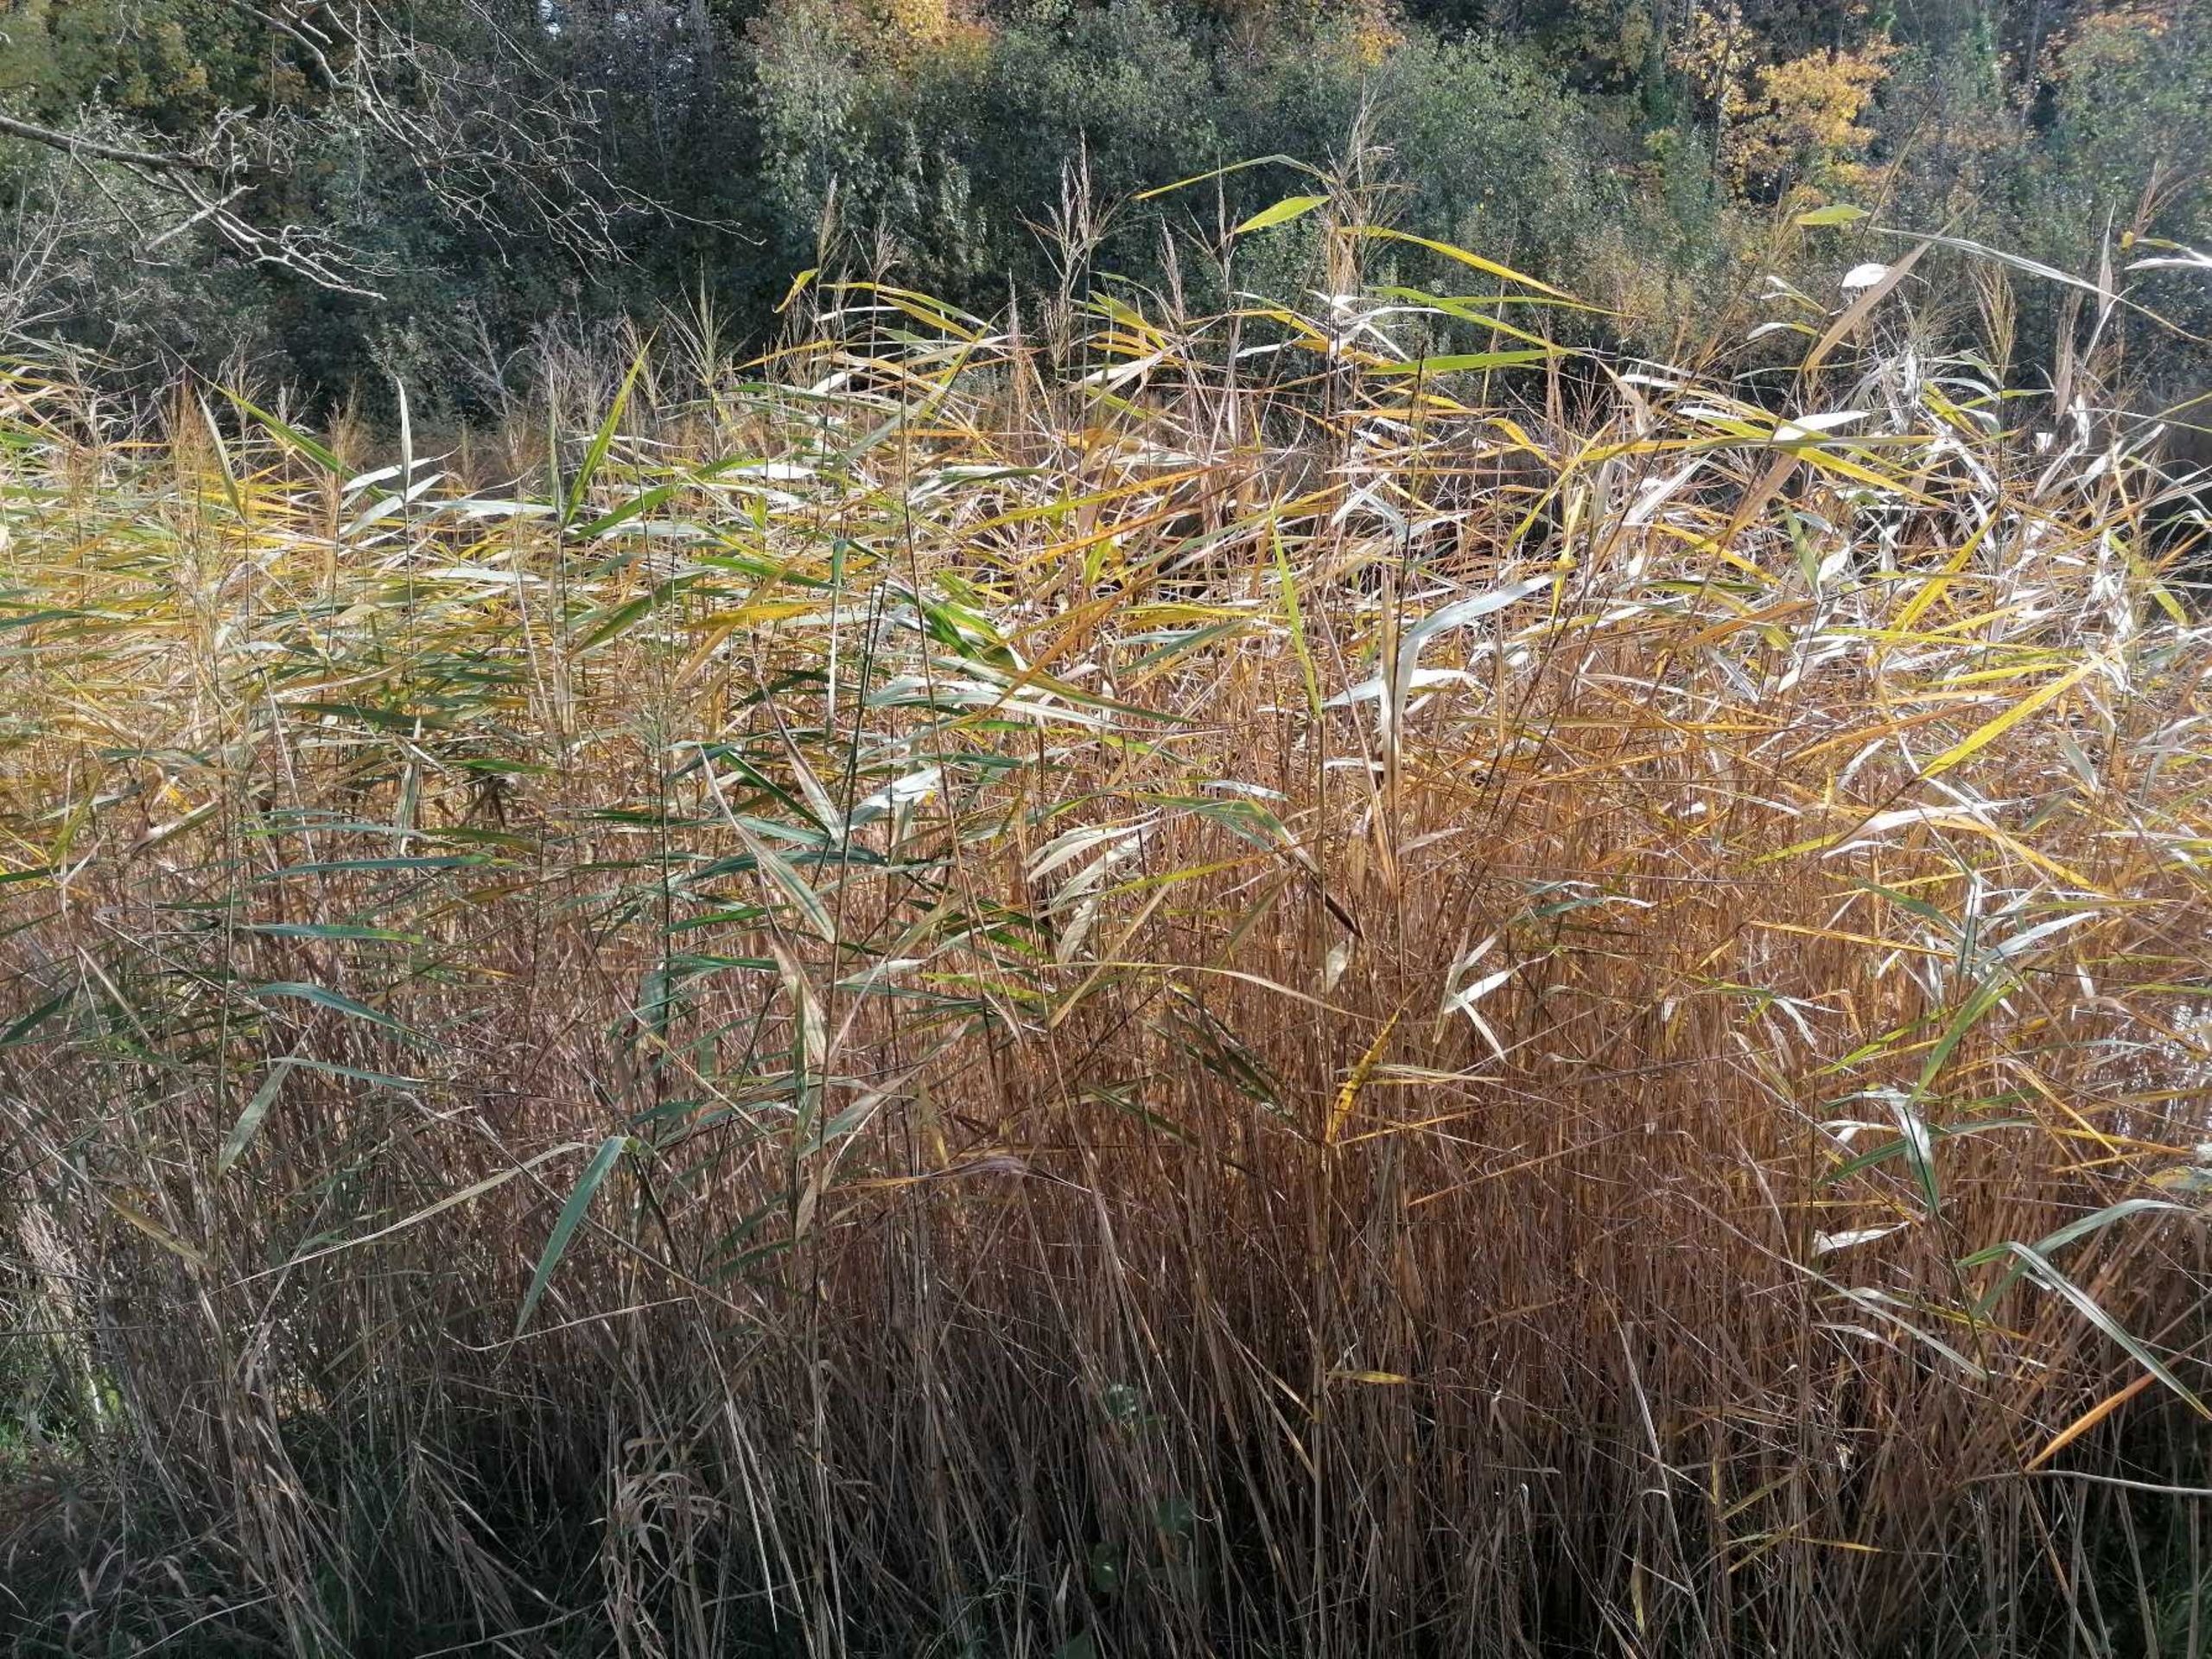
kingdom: Plantae
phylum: Tracheophyta
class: Liliopsida
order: Poales
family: Poaceae
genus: Phragmites
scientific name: Phragmites australis
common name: Tagrør
